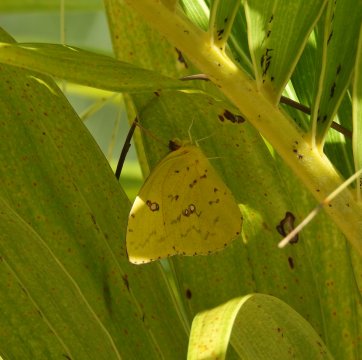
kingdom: Animalia
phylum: Arthropoda
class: Insecta
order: Lepidoptera
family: Pieridae
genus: Phoebis
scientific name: Phoebis sennae
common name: Cloudless Sulphur
